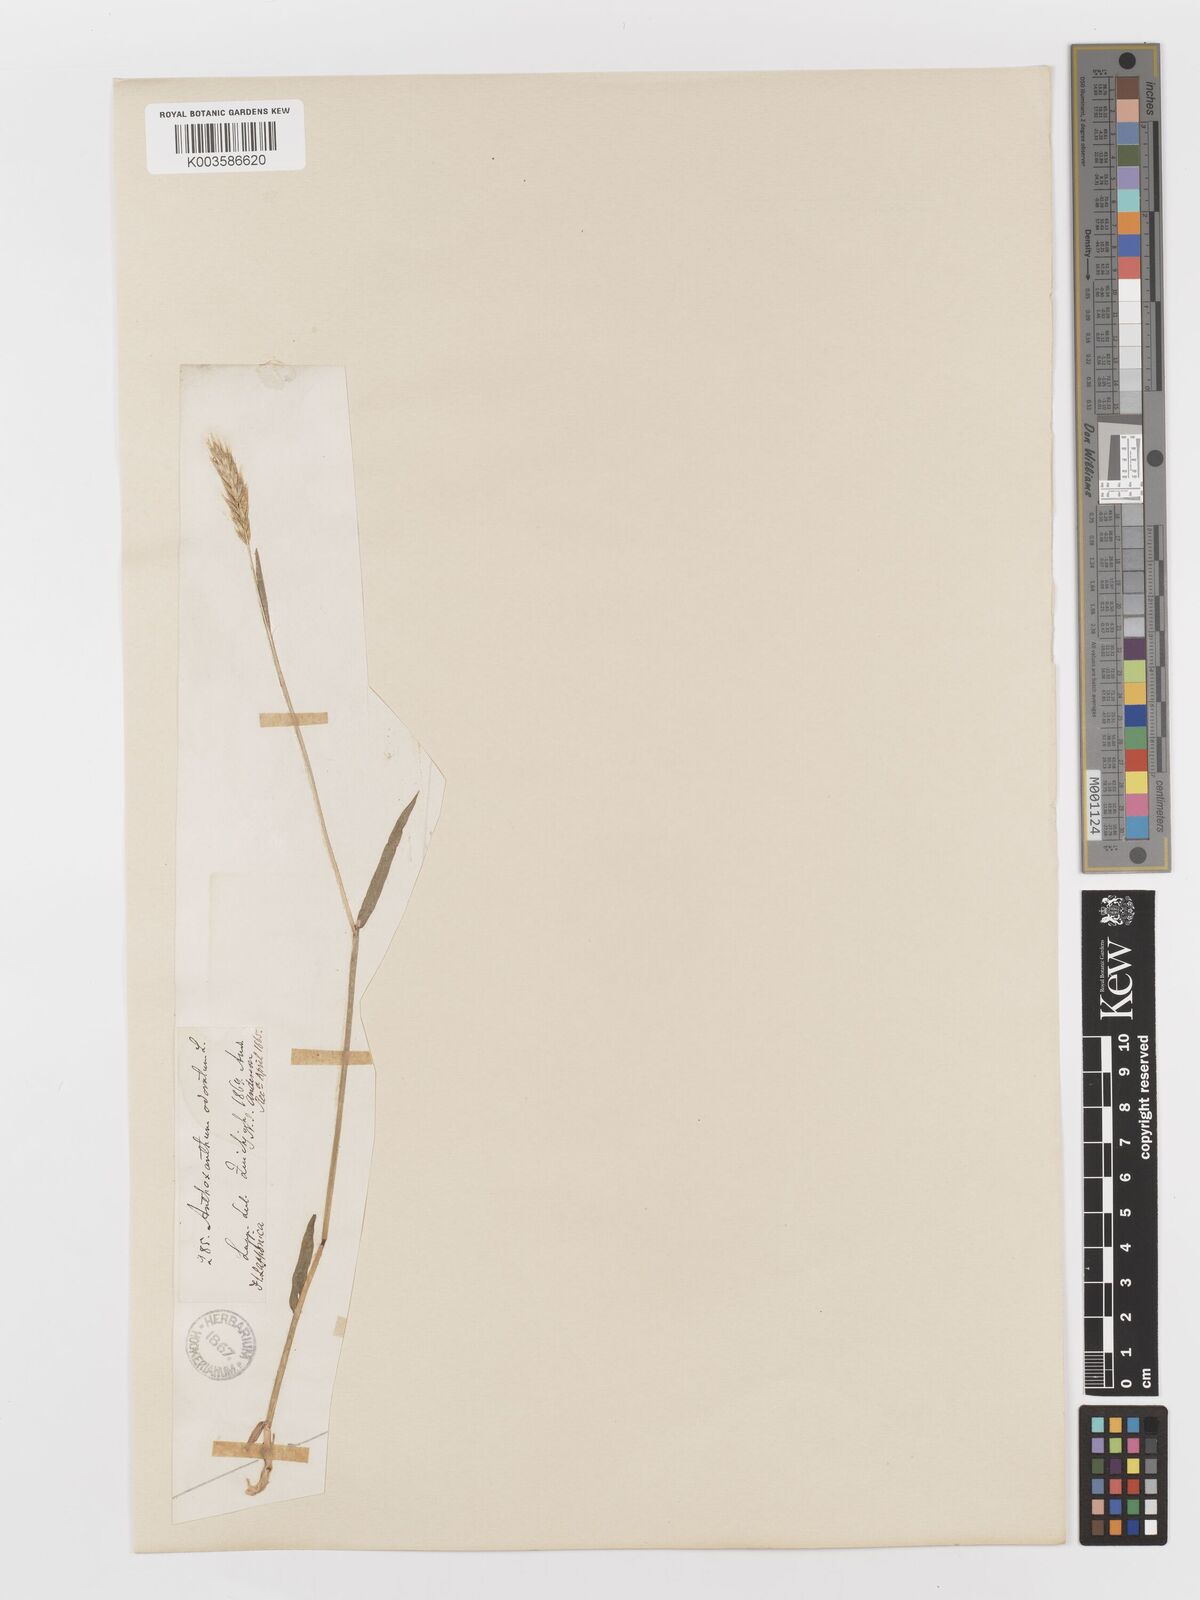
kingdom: Plantae
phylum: Tracheophyta
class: Liliopsida
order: Poales
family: Poaceae
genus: Anthoxanthum
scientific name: Anthoxanthum odoratum
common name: Sweet vernalgrass
